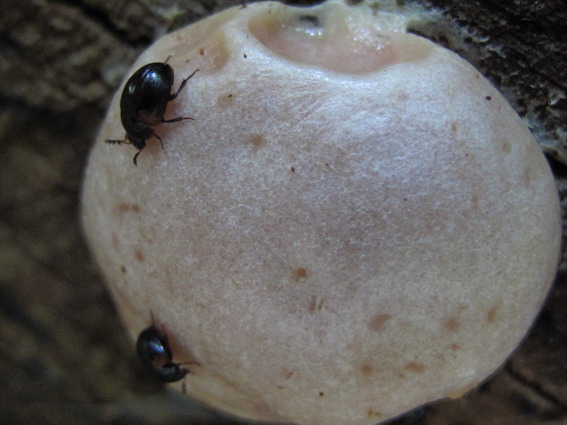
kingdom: Protozoa
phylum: Mycetozoa
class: Myxomycetes
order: Cribrariales
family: Tubiferaceae
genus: Reticularia
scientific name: Reticularia lycoperdon
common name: skinnende støvpude
